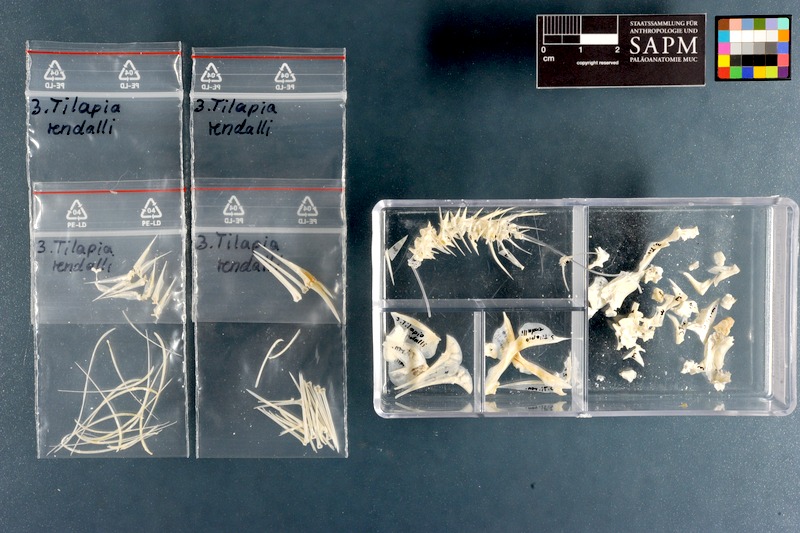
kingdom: Animalia
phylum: Chordata
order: Perciformes
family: Cichlidae
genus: Coptodon
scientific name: Coptodon rendalli
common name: Redbreast tilapia
